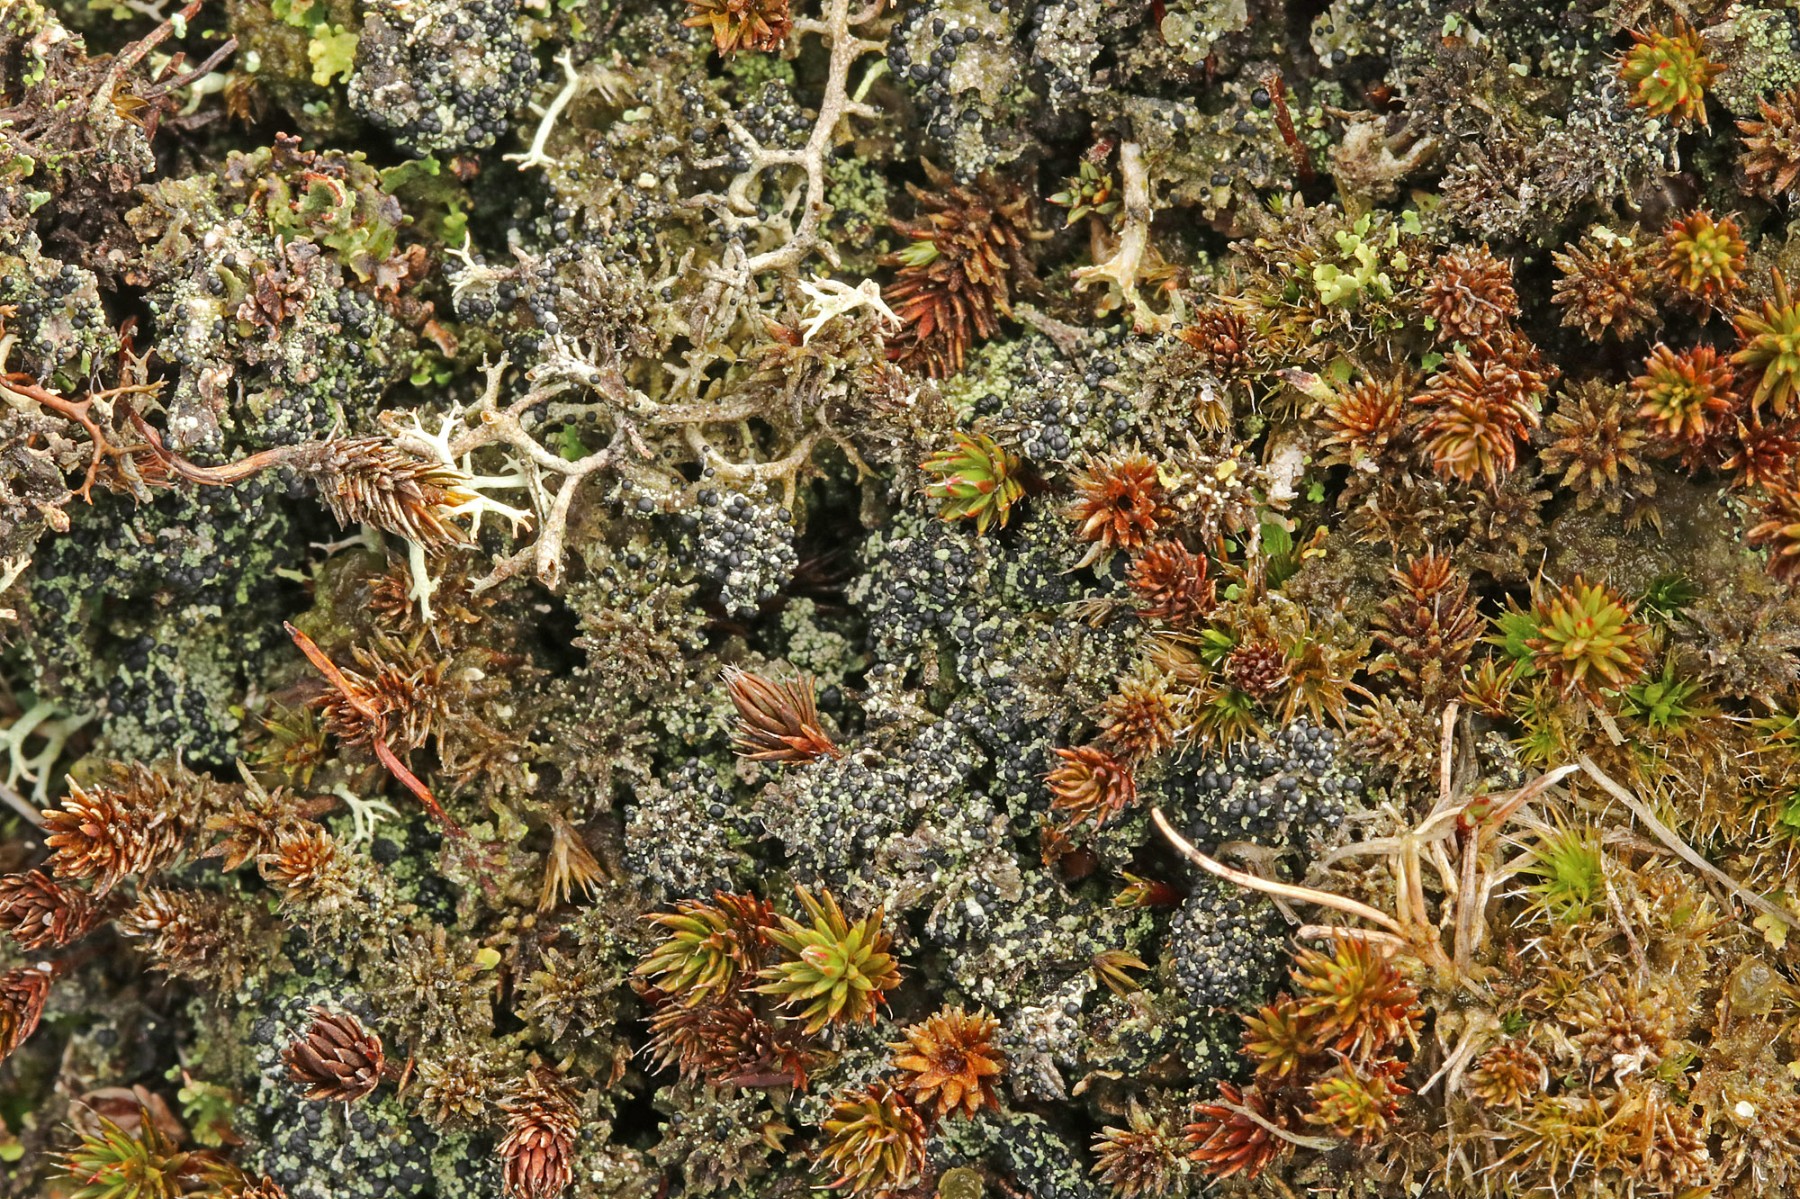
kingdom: Fungi
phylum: Ascomycota
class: Lecanoromycetes
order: Lecanorales
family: Byssolomataceae
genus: Micarea
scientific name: Micarea lignaria
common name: tørve-knaplav
